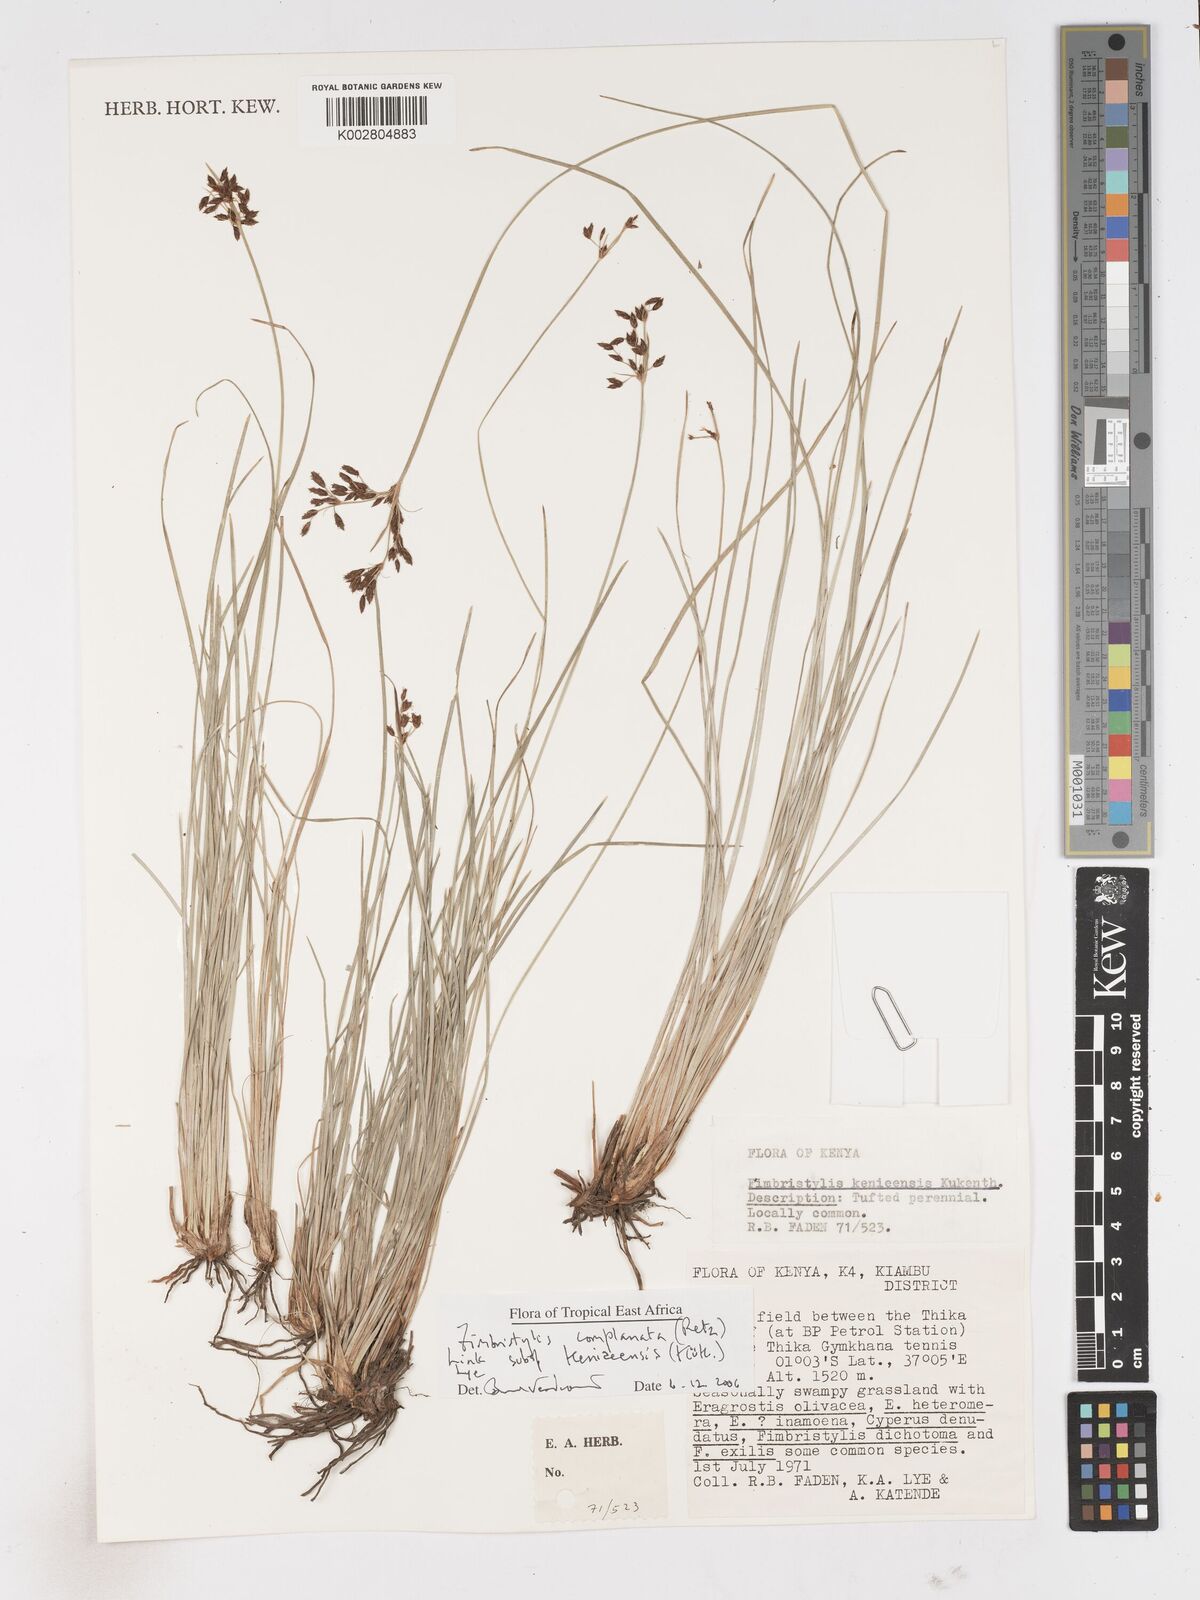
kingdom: Plantae
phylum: Tracheophyta
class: Liliopsida
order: Poales
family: Cyperaceae
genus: Fimbristylis
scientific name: Fimbristylis complanata
